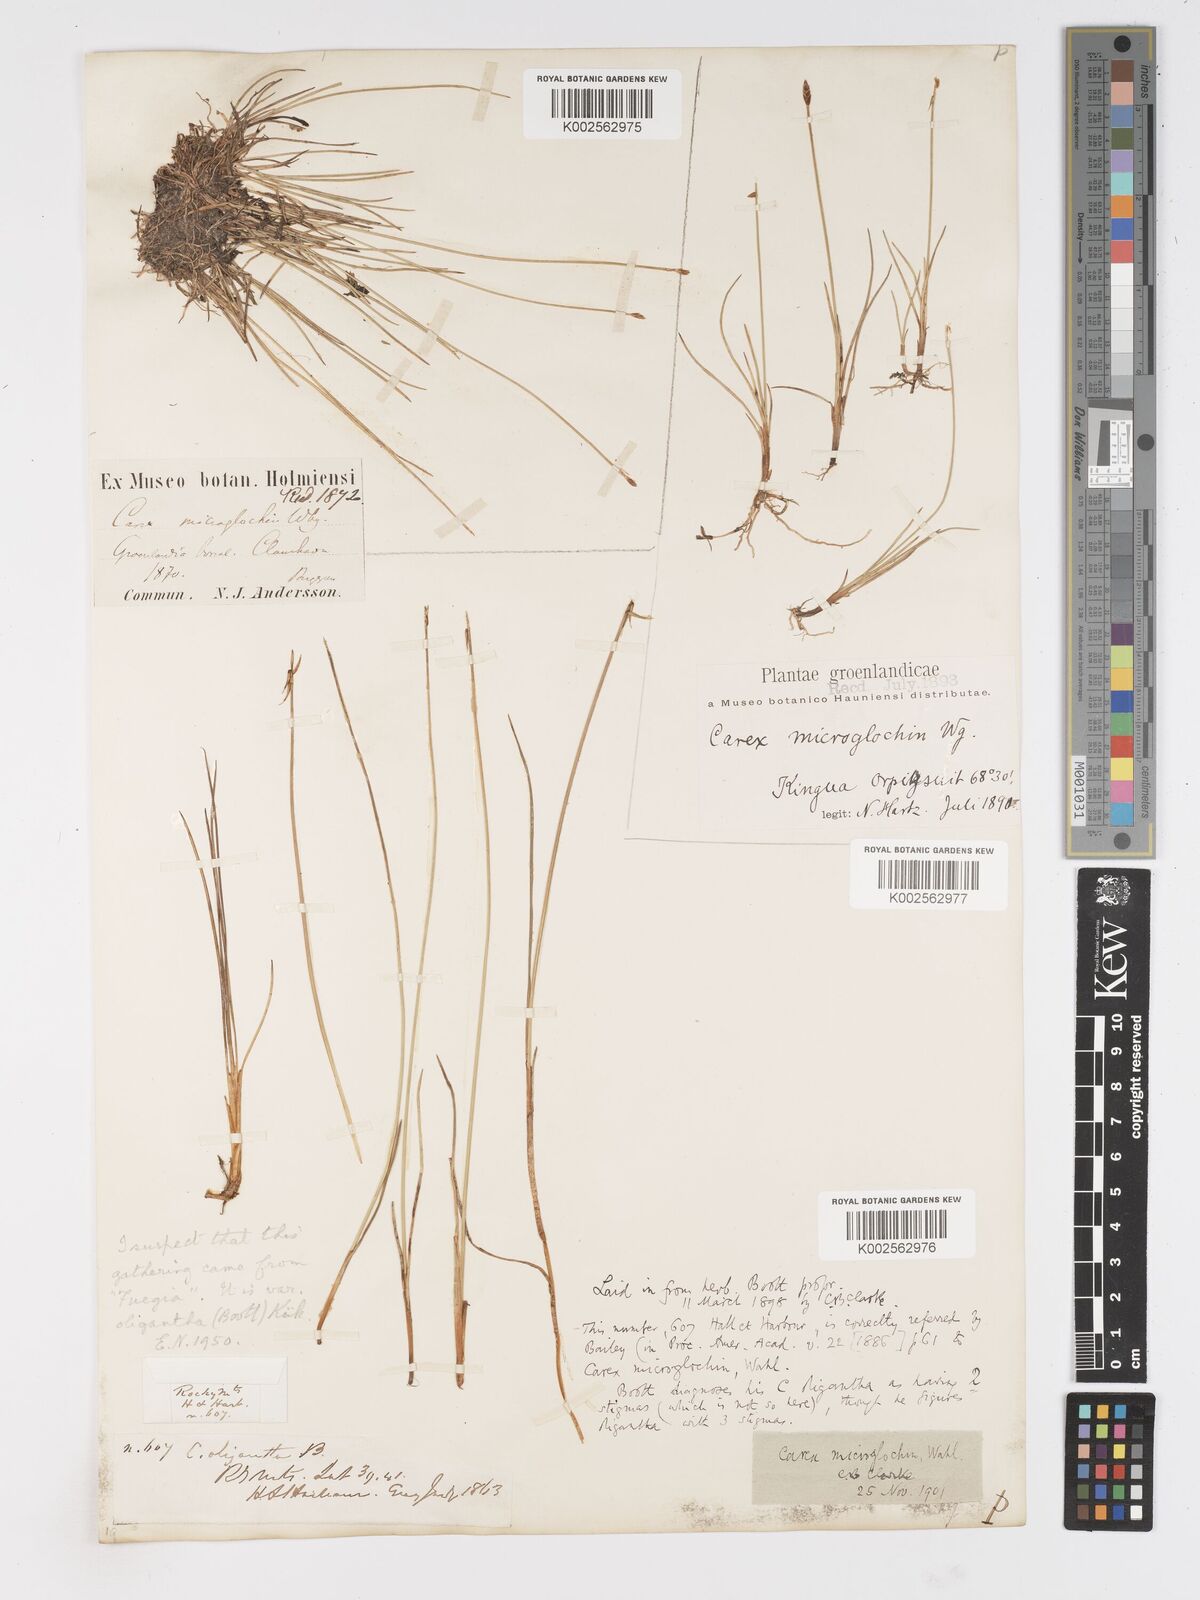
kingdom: Plantae
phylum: Tracheophyta
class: Liliopsida
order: Poales
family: Cyperaceae
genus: Carex
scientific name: Carex microglochin
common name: Bristle sedge
